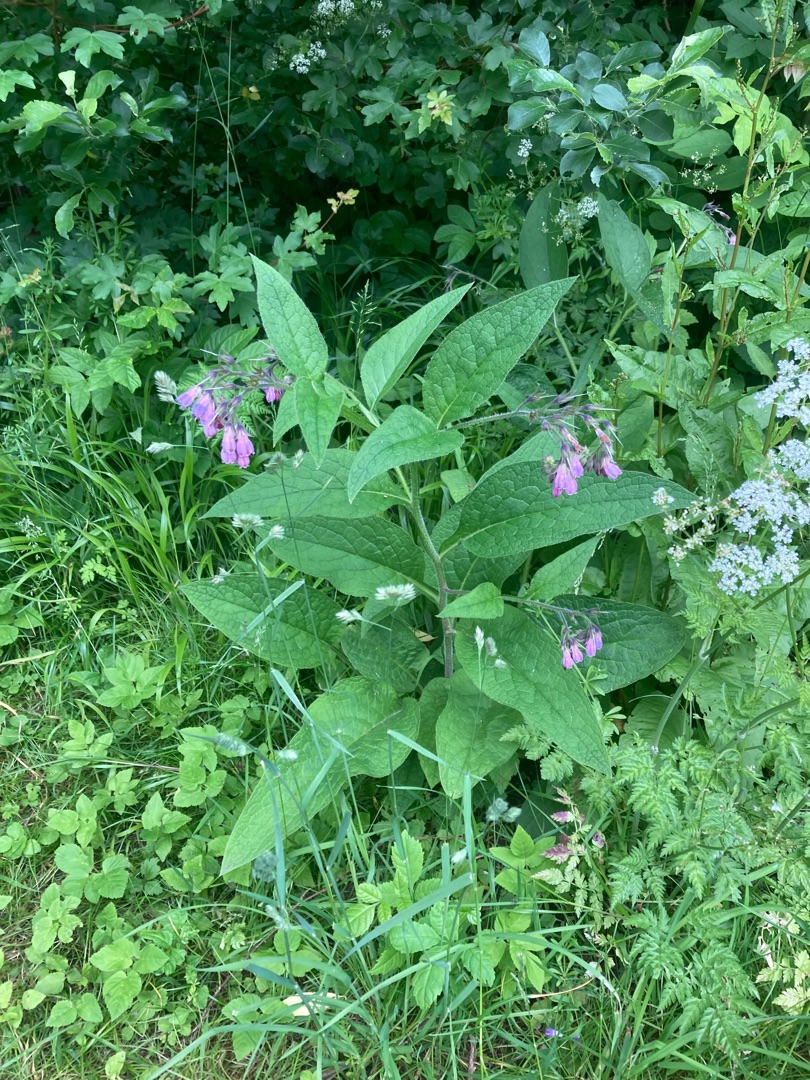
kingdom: Plantae
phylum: Tracheophyta
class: Magnoliopsida
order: Boraginales
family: Boraginaceae
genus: Symphytum
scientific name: Symphytum uplandicum
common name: Foder-kulsukker
